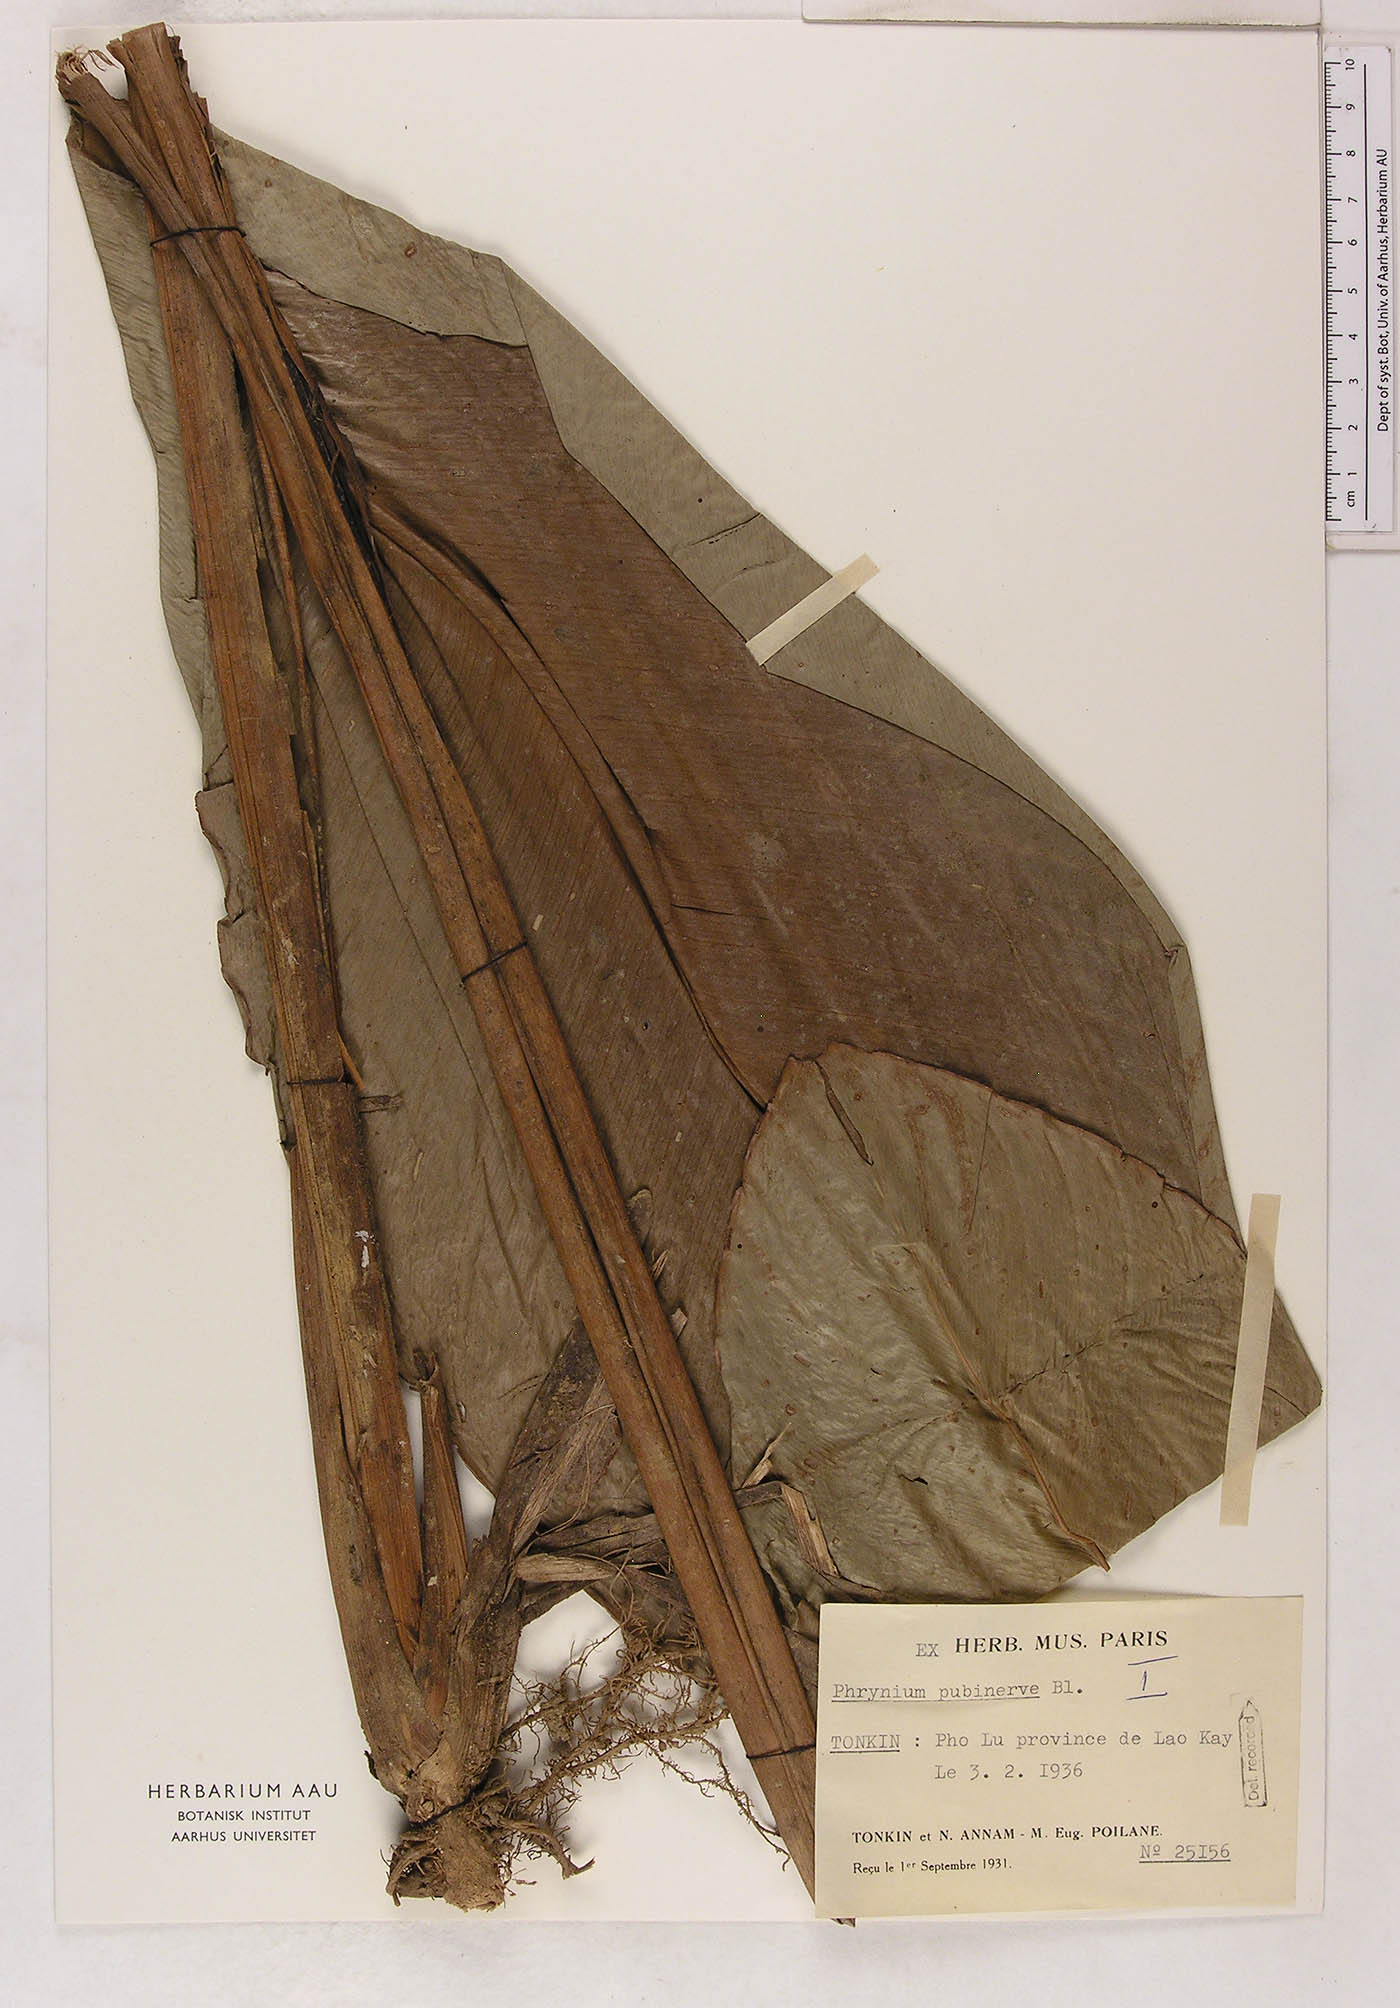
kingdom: Plantae
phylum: Tracheophyta
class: Liliopsida
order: Zingiberales
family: Marantaceae
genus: Phrynium
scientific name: Phrynium pubinerve
